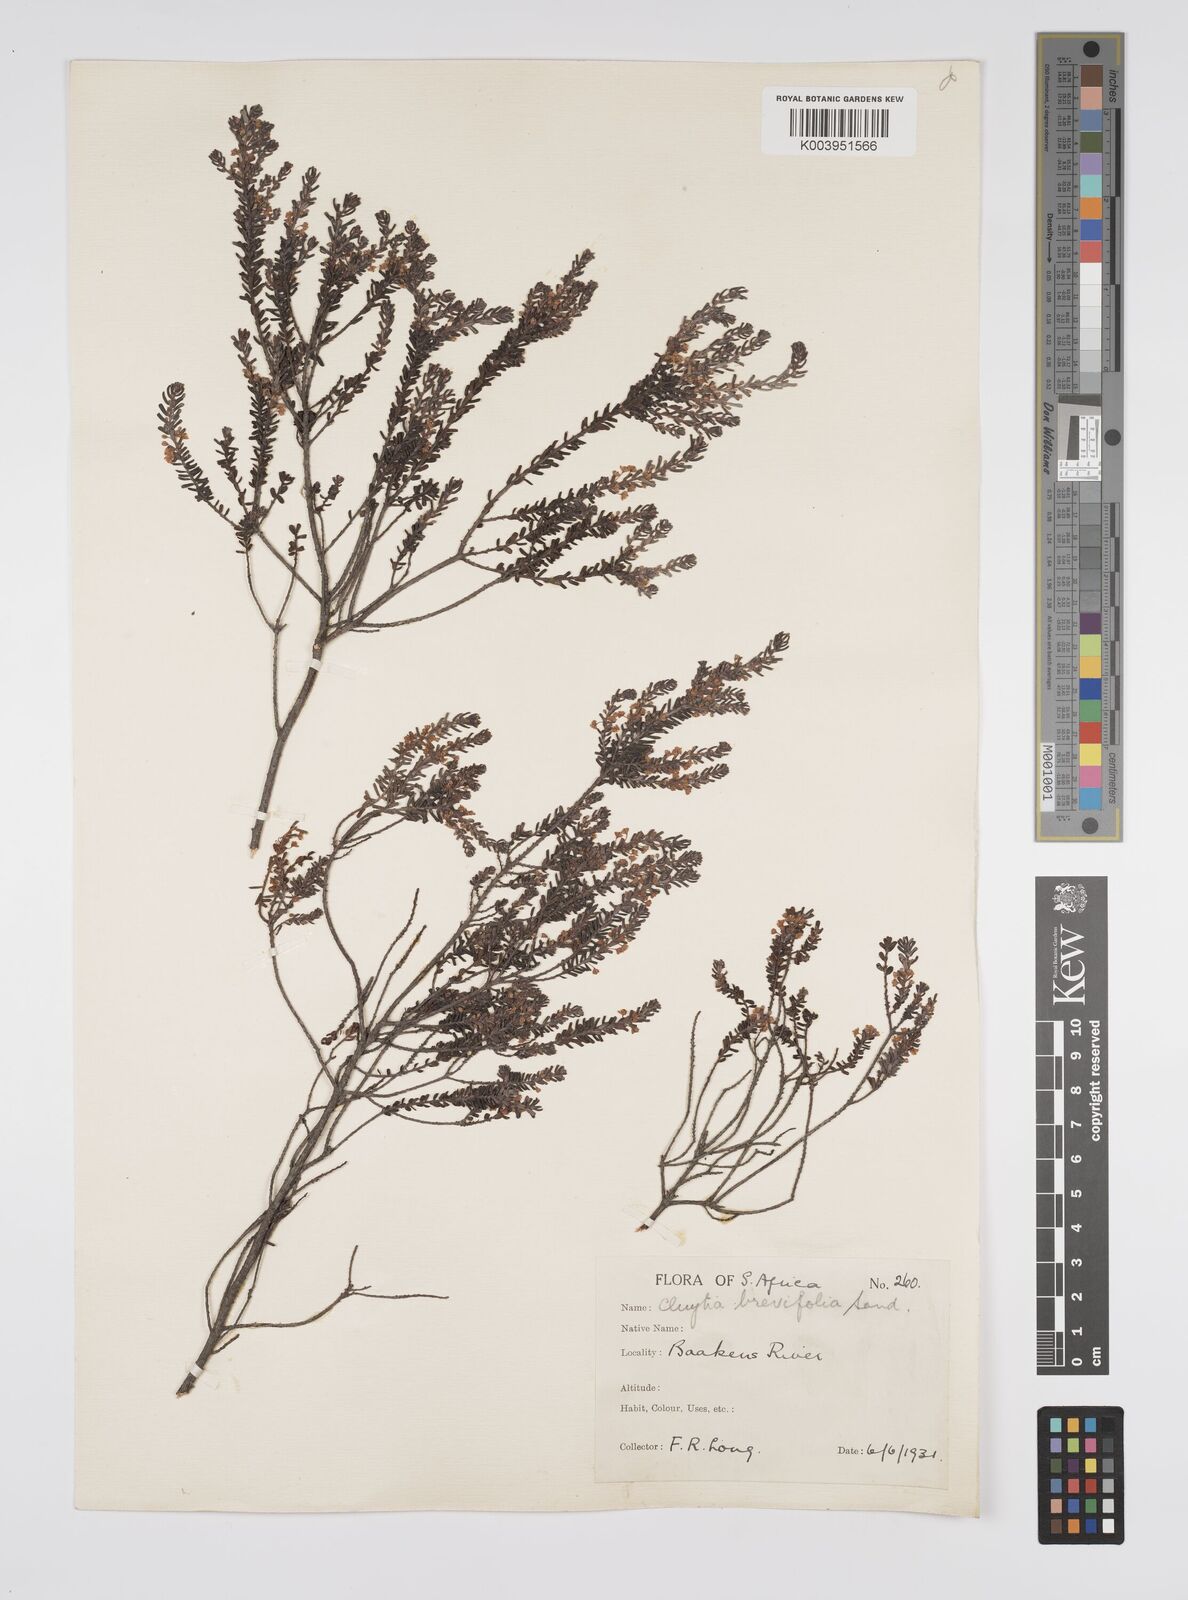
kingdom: Plantae
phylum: Tracheophyta
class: Magnoliopsida
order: Malpighiales
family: Peraceae
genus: Clutia
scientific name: Clutia brevifolia
